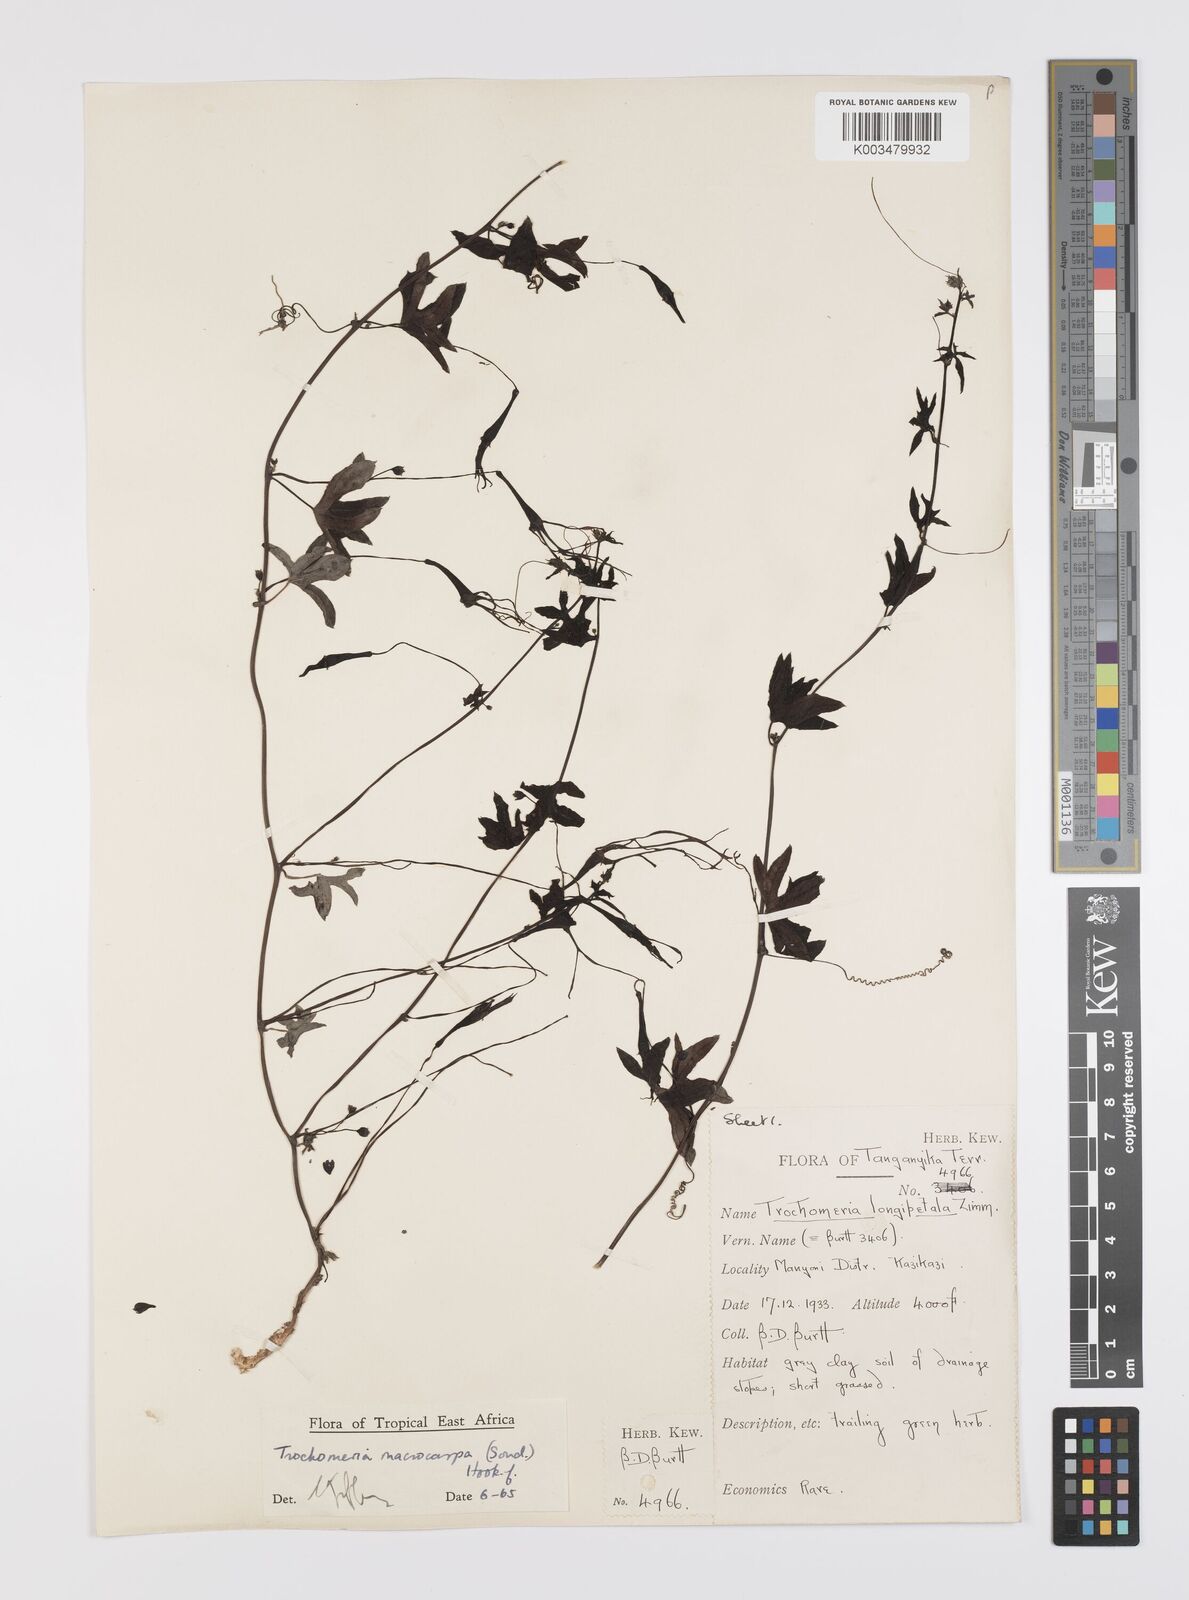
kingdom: Plantae
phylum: Tracheophyta
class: Magnoliopsida
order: Cucurbitales
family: Cucurbitaceae
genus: Trochomeria
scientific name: Trochomeria macrocarpa
